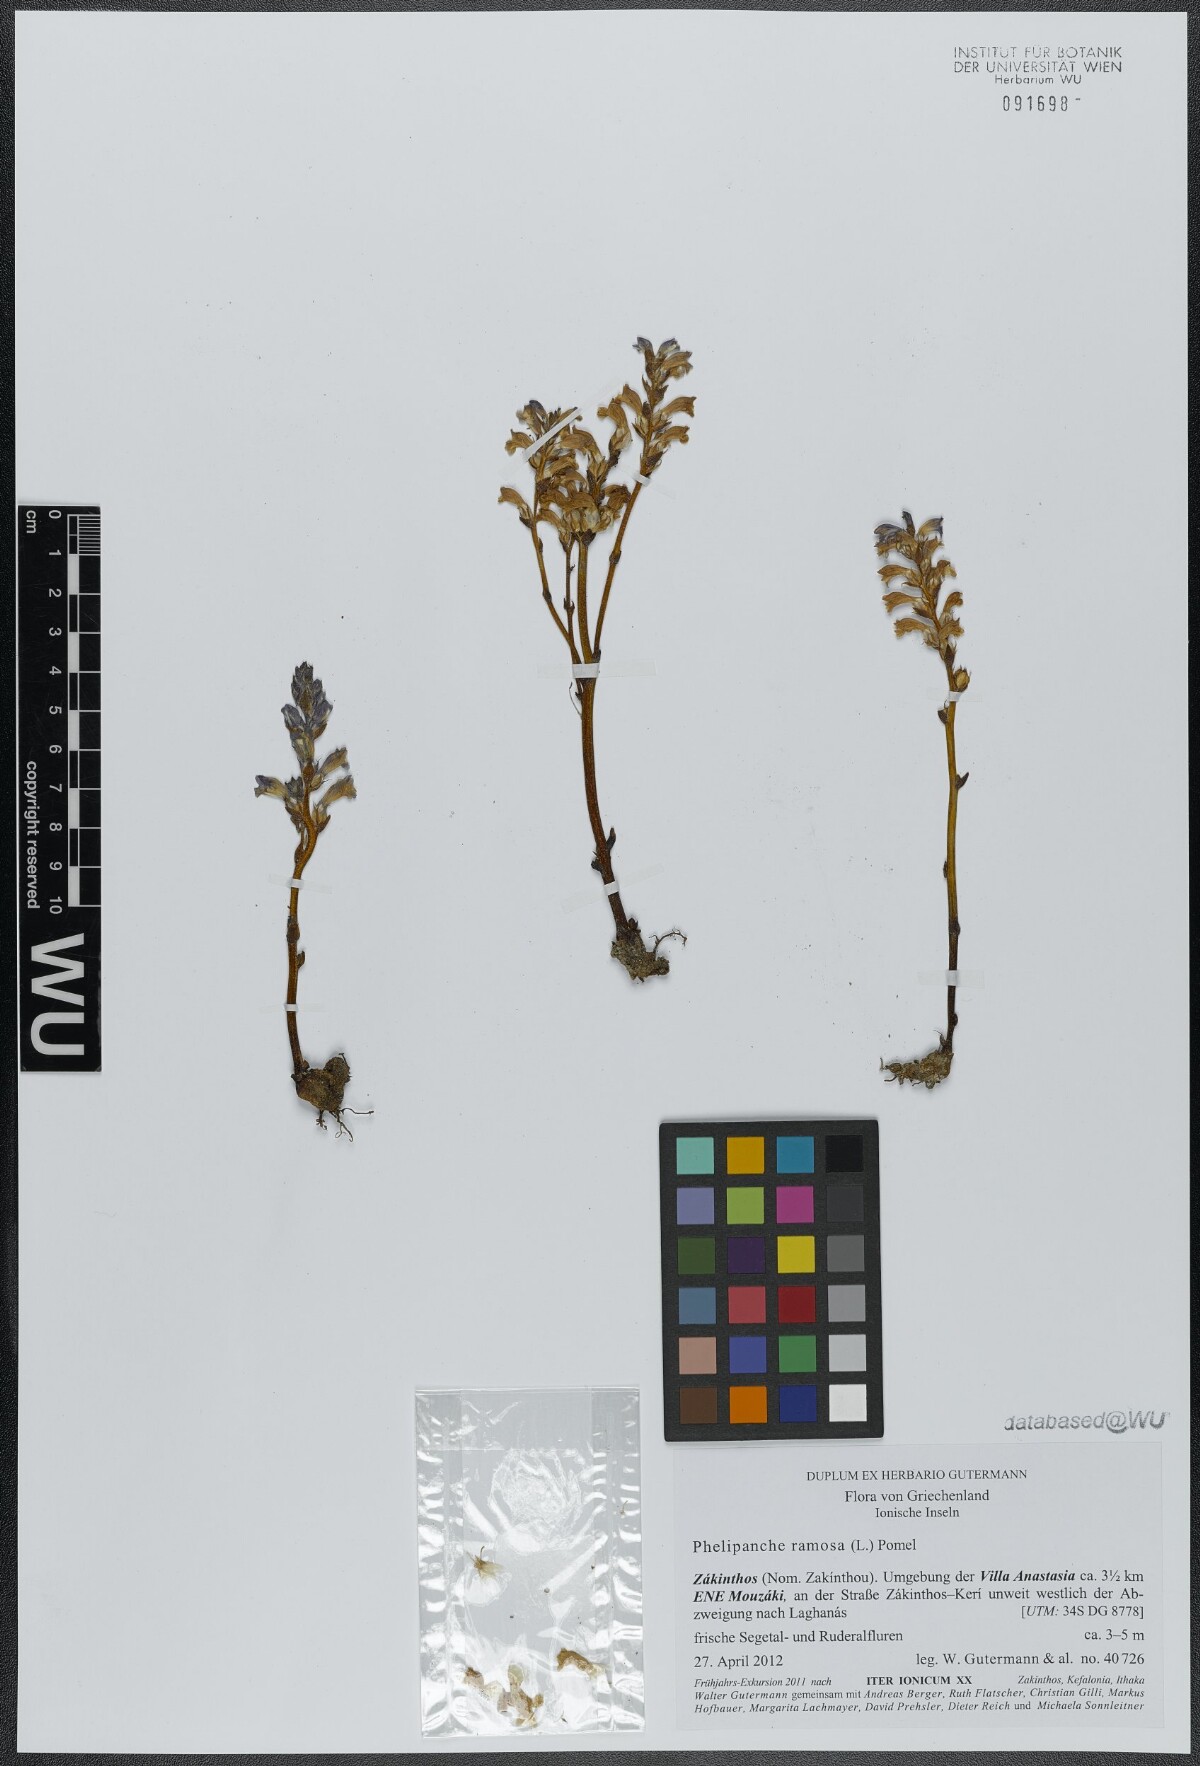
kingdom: Plantae
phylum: Tracheophyta
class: Magnoliopsida
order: Lamiales
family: Orobanchaceae
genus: Phelipanche
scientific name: Phelipanche mutelii
